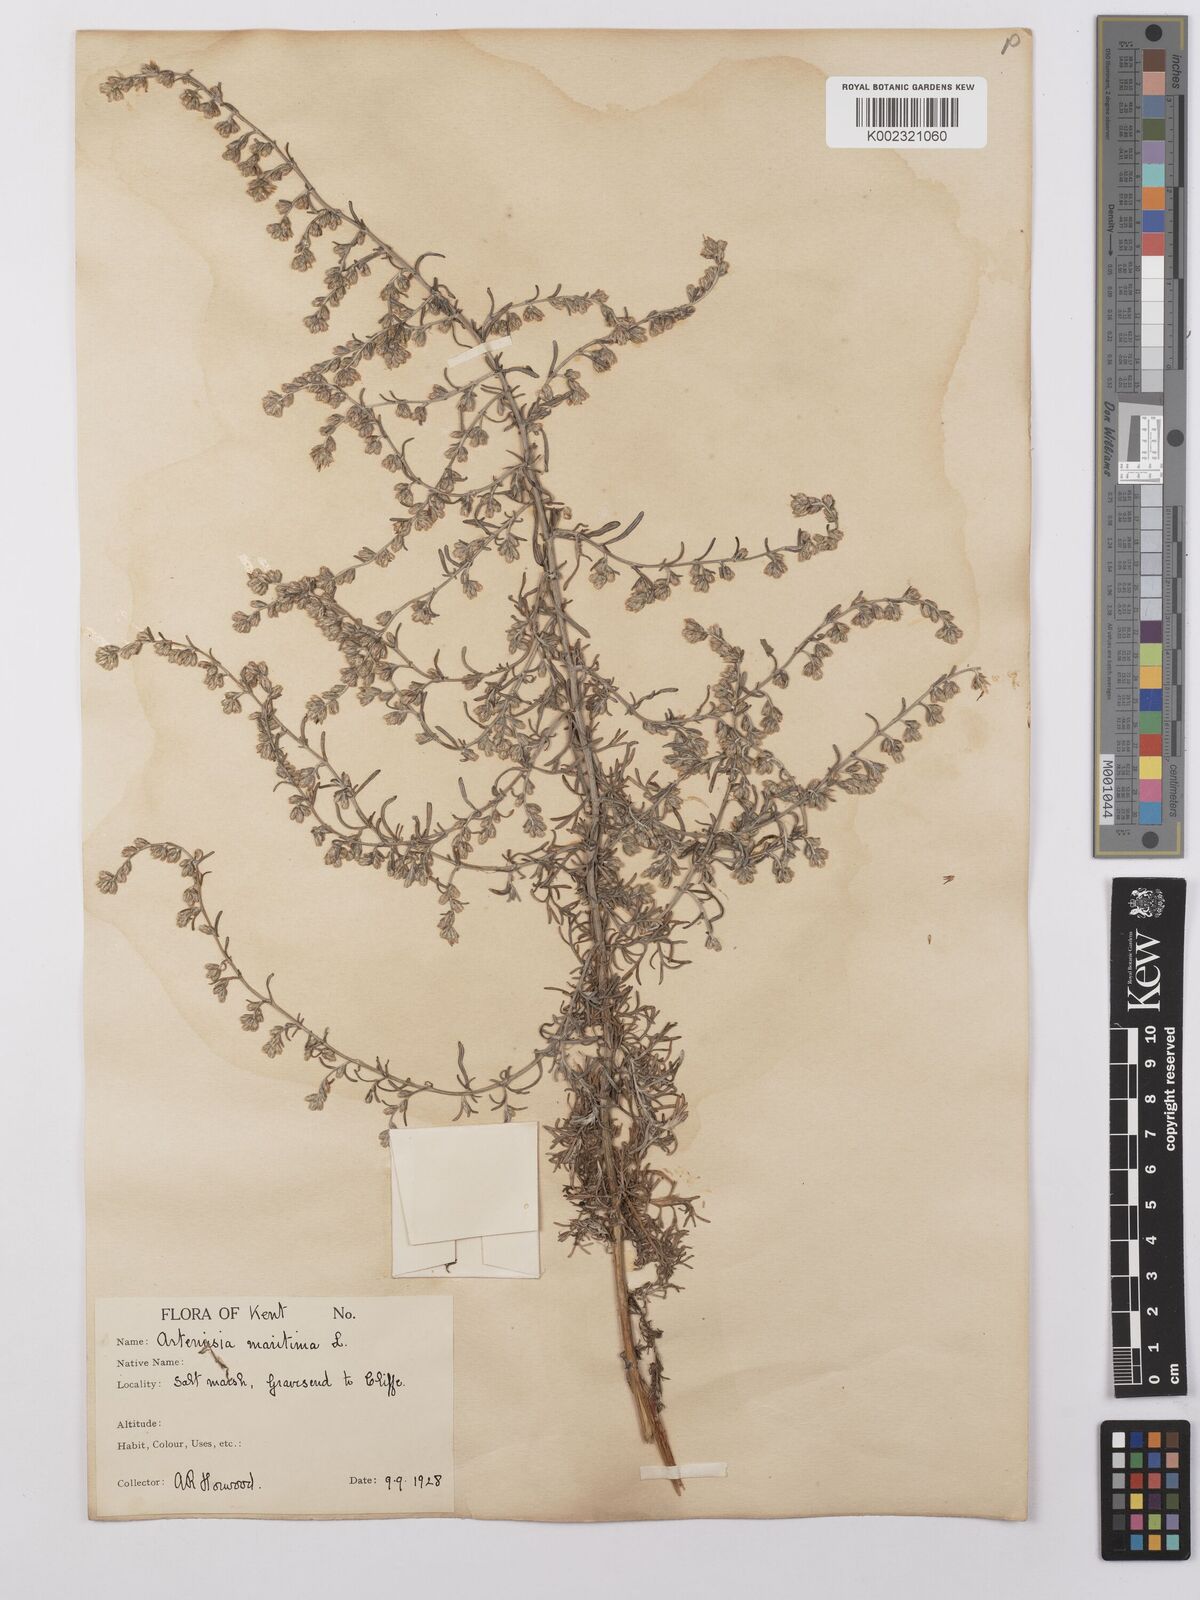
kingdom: Plantae
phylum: Tracheophyta
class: Magnoliopsida
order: Asterales
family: Asteraceae
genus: Artemisia
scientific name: Artemisia maritima
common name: Wormseed
